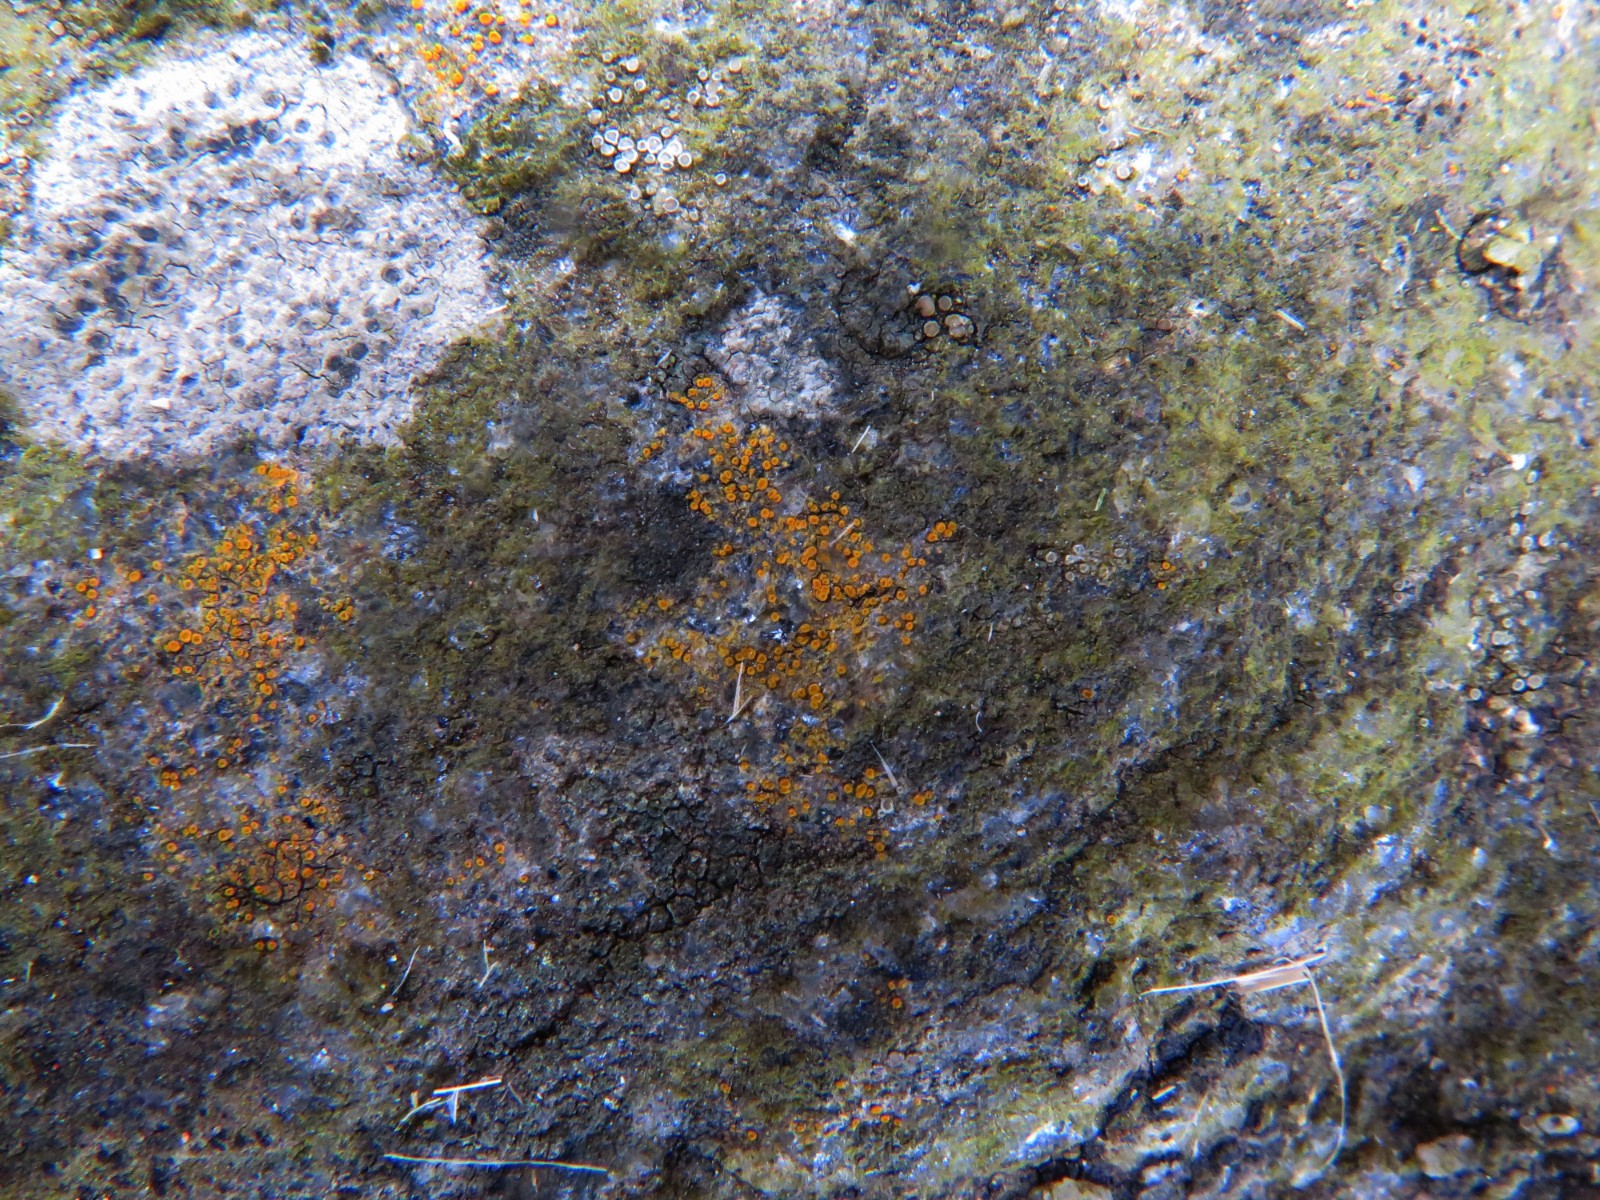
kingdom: Fungi
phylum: Ascomycota
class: Lecanoromycetes
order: Teloschistales
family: Teloschistaceae
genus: Athallia
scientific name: Athallia
